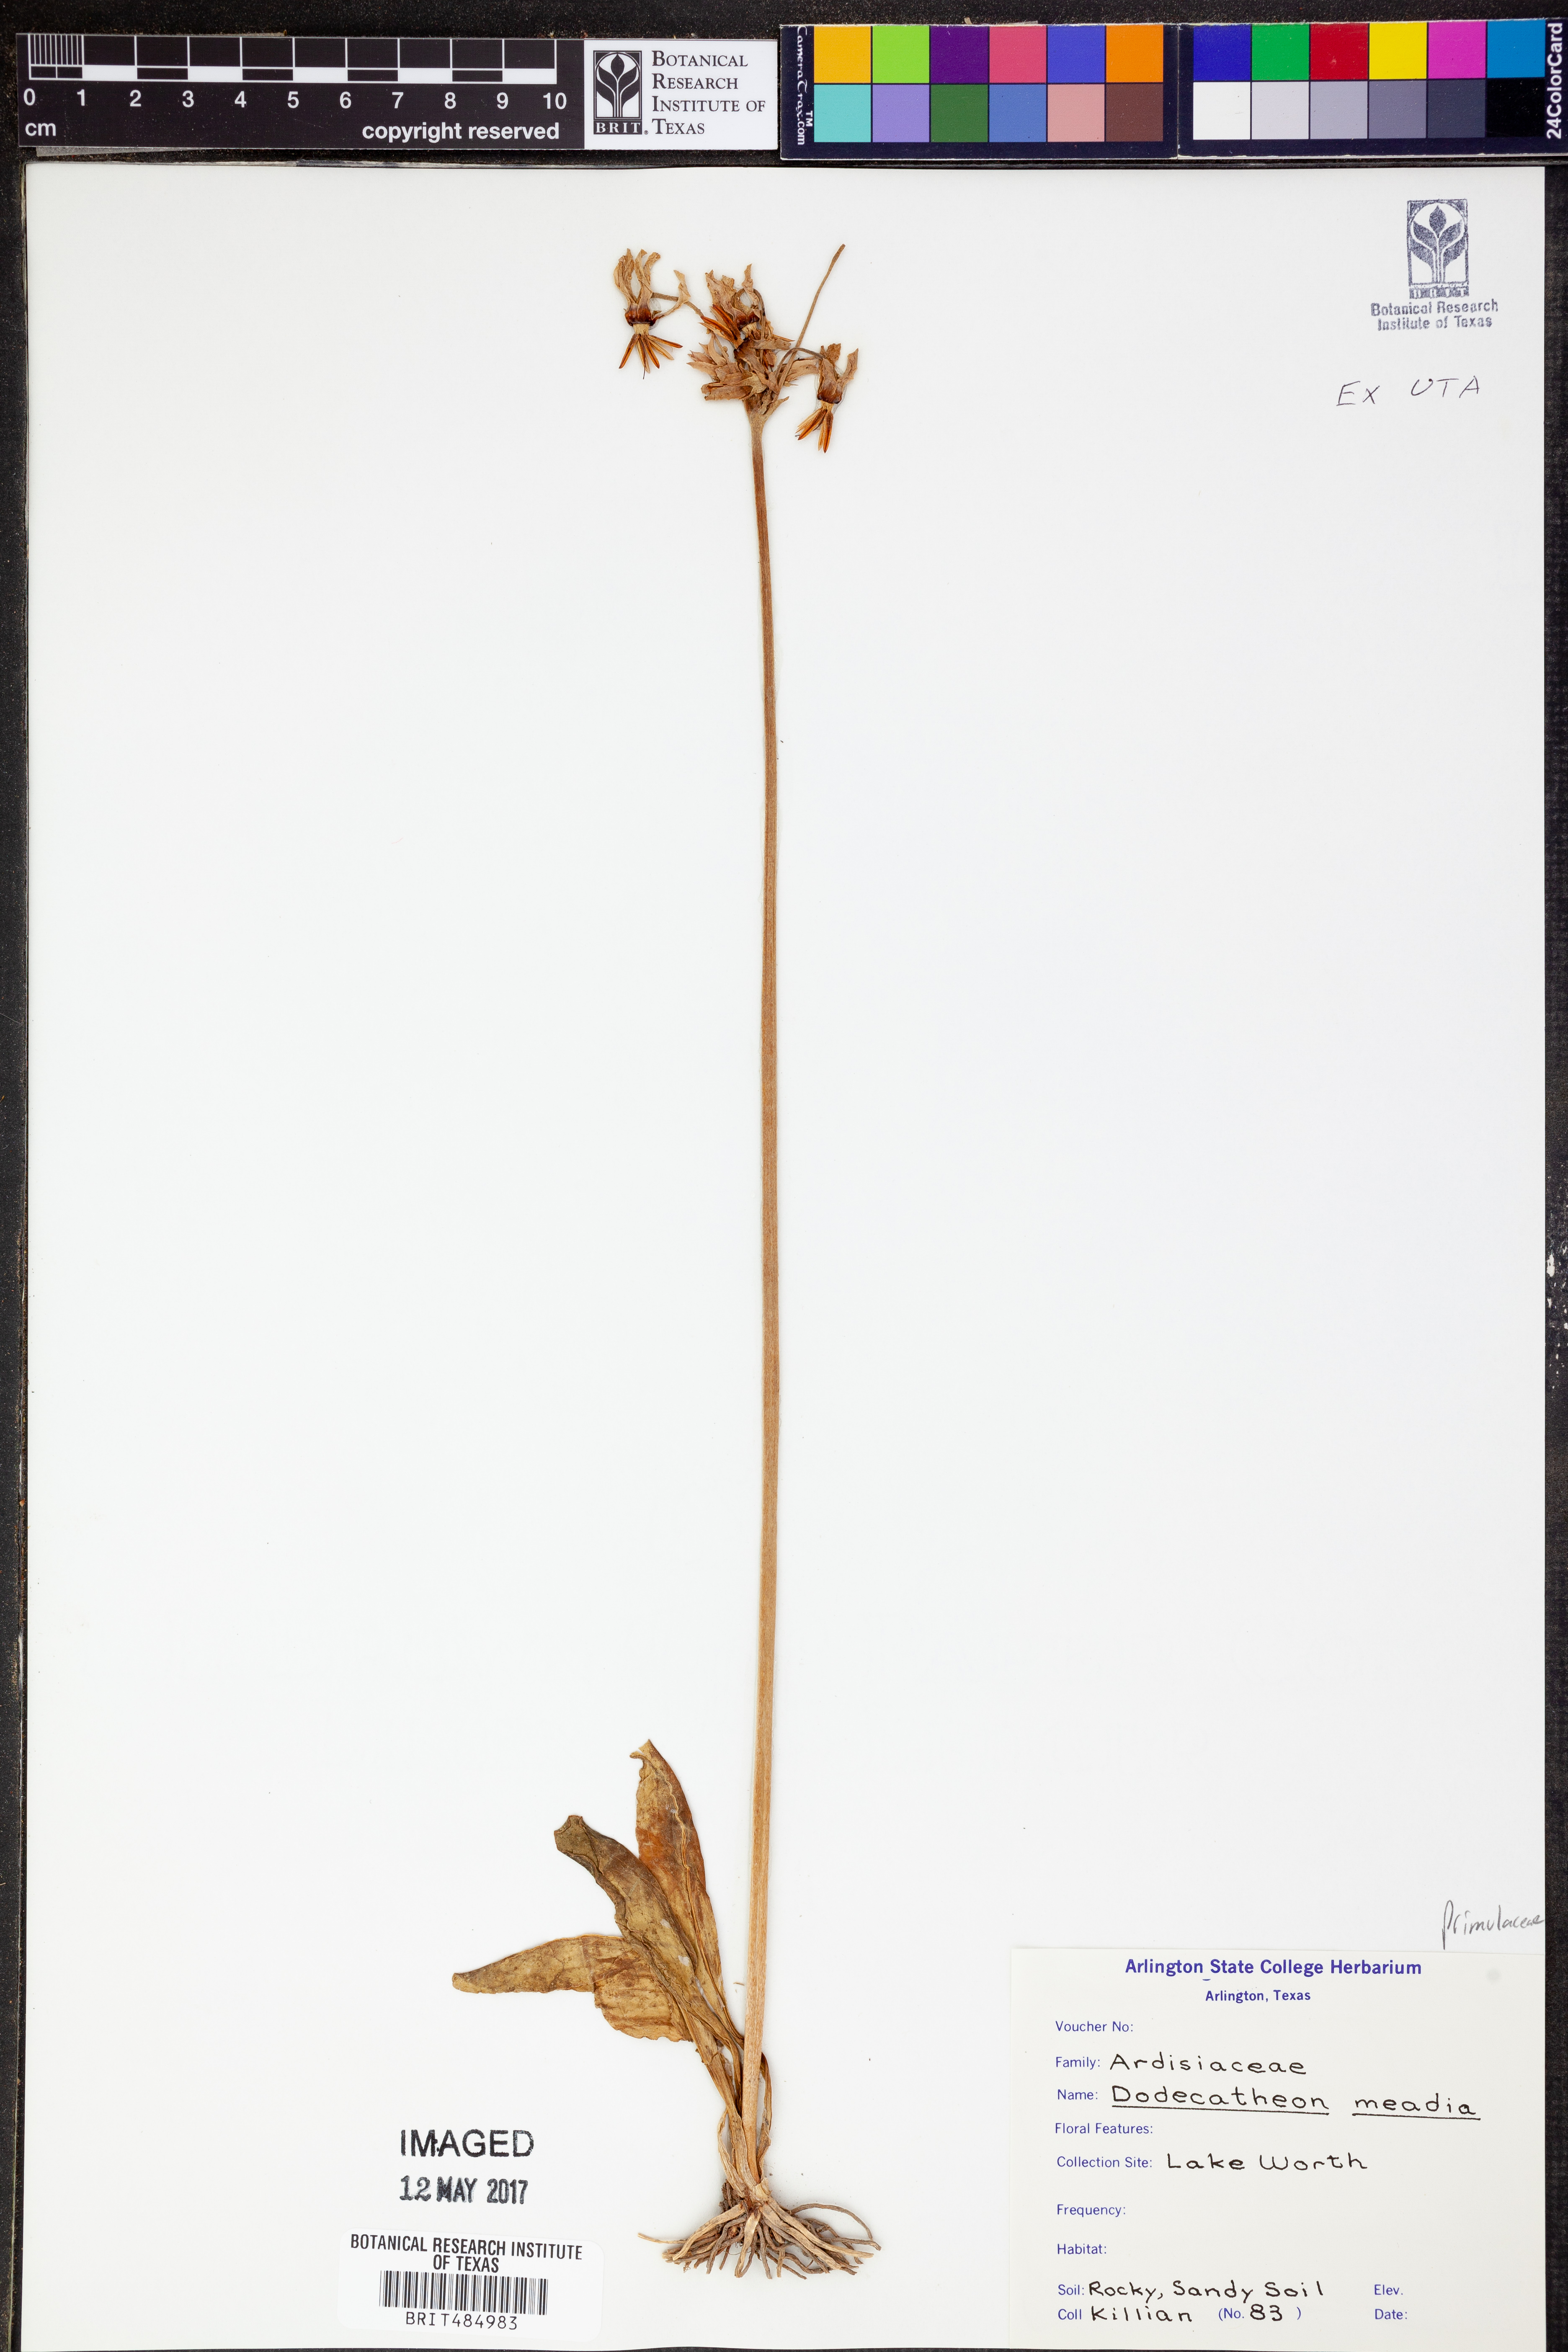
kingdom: Plantae
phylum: Tracheophyta
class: Magnoliopsida
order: Ericales
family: Primulaceae
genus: Dodecatheon
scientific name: Dodecatheon meadia
